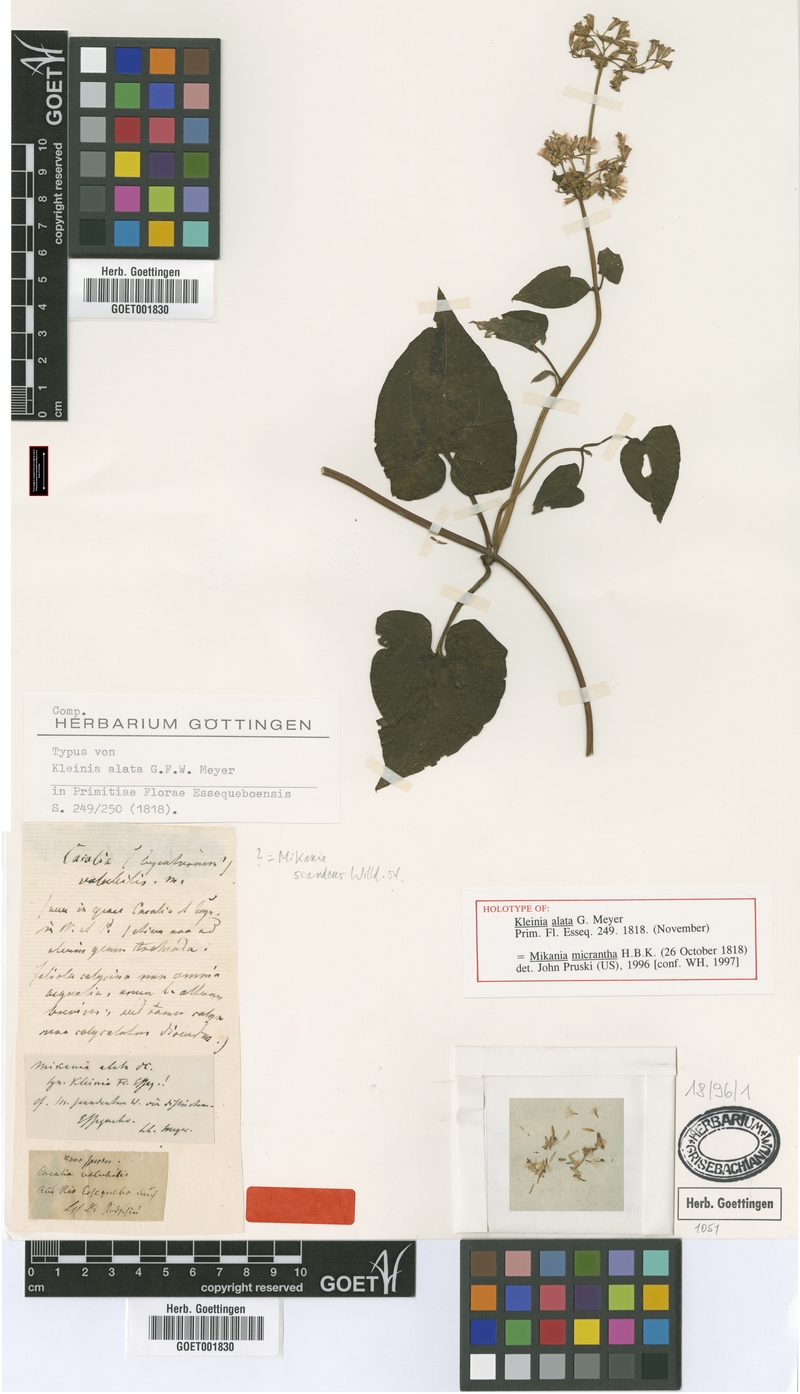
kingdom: Plantae
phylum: Tracheophyta
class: Magnoliopsida
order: Asterales
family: Asteraceae
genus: Mikania
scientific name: Mikania scandens
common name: Climbing hempvine
